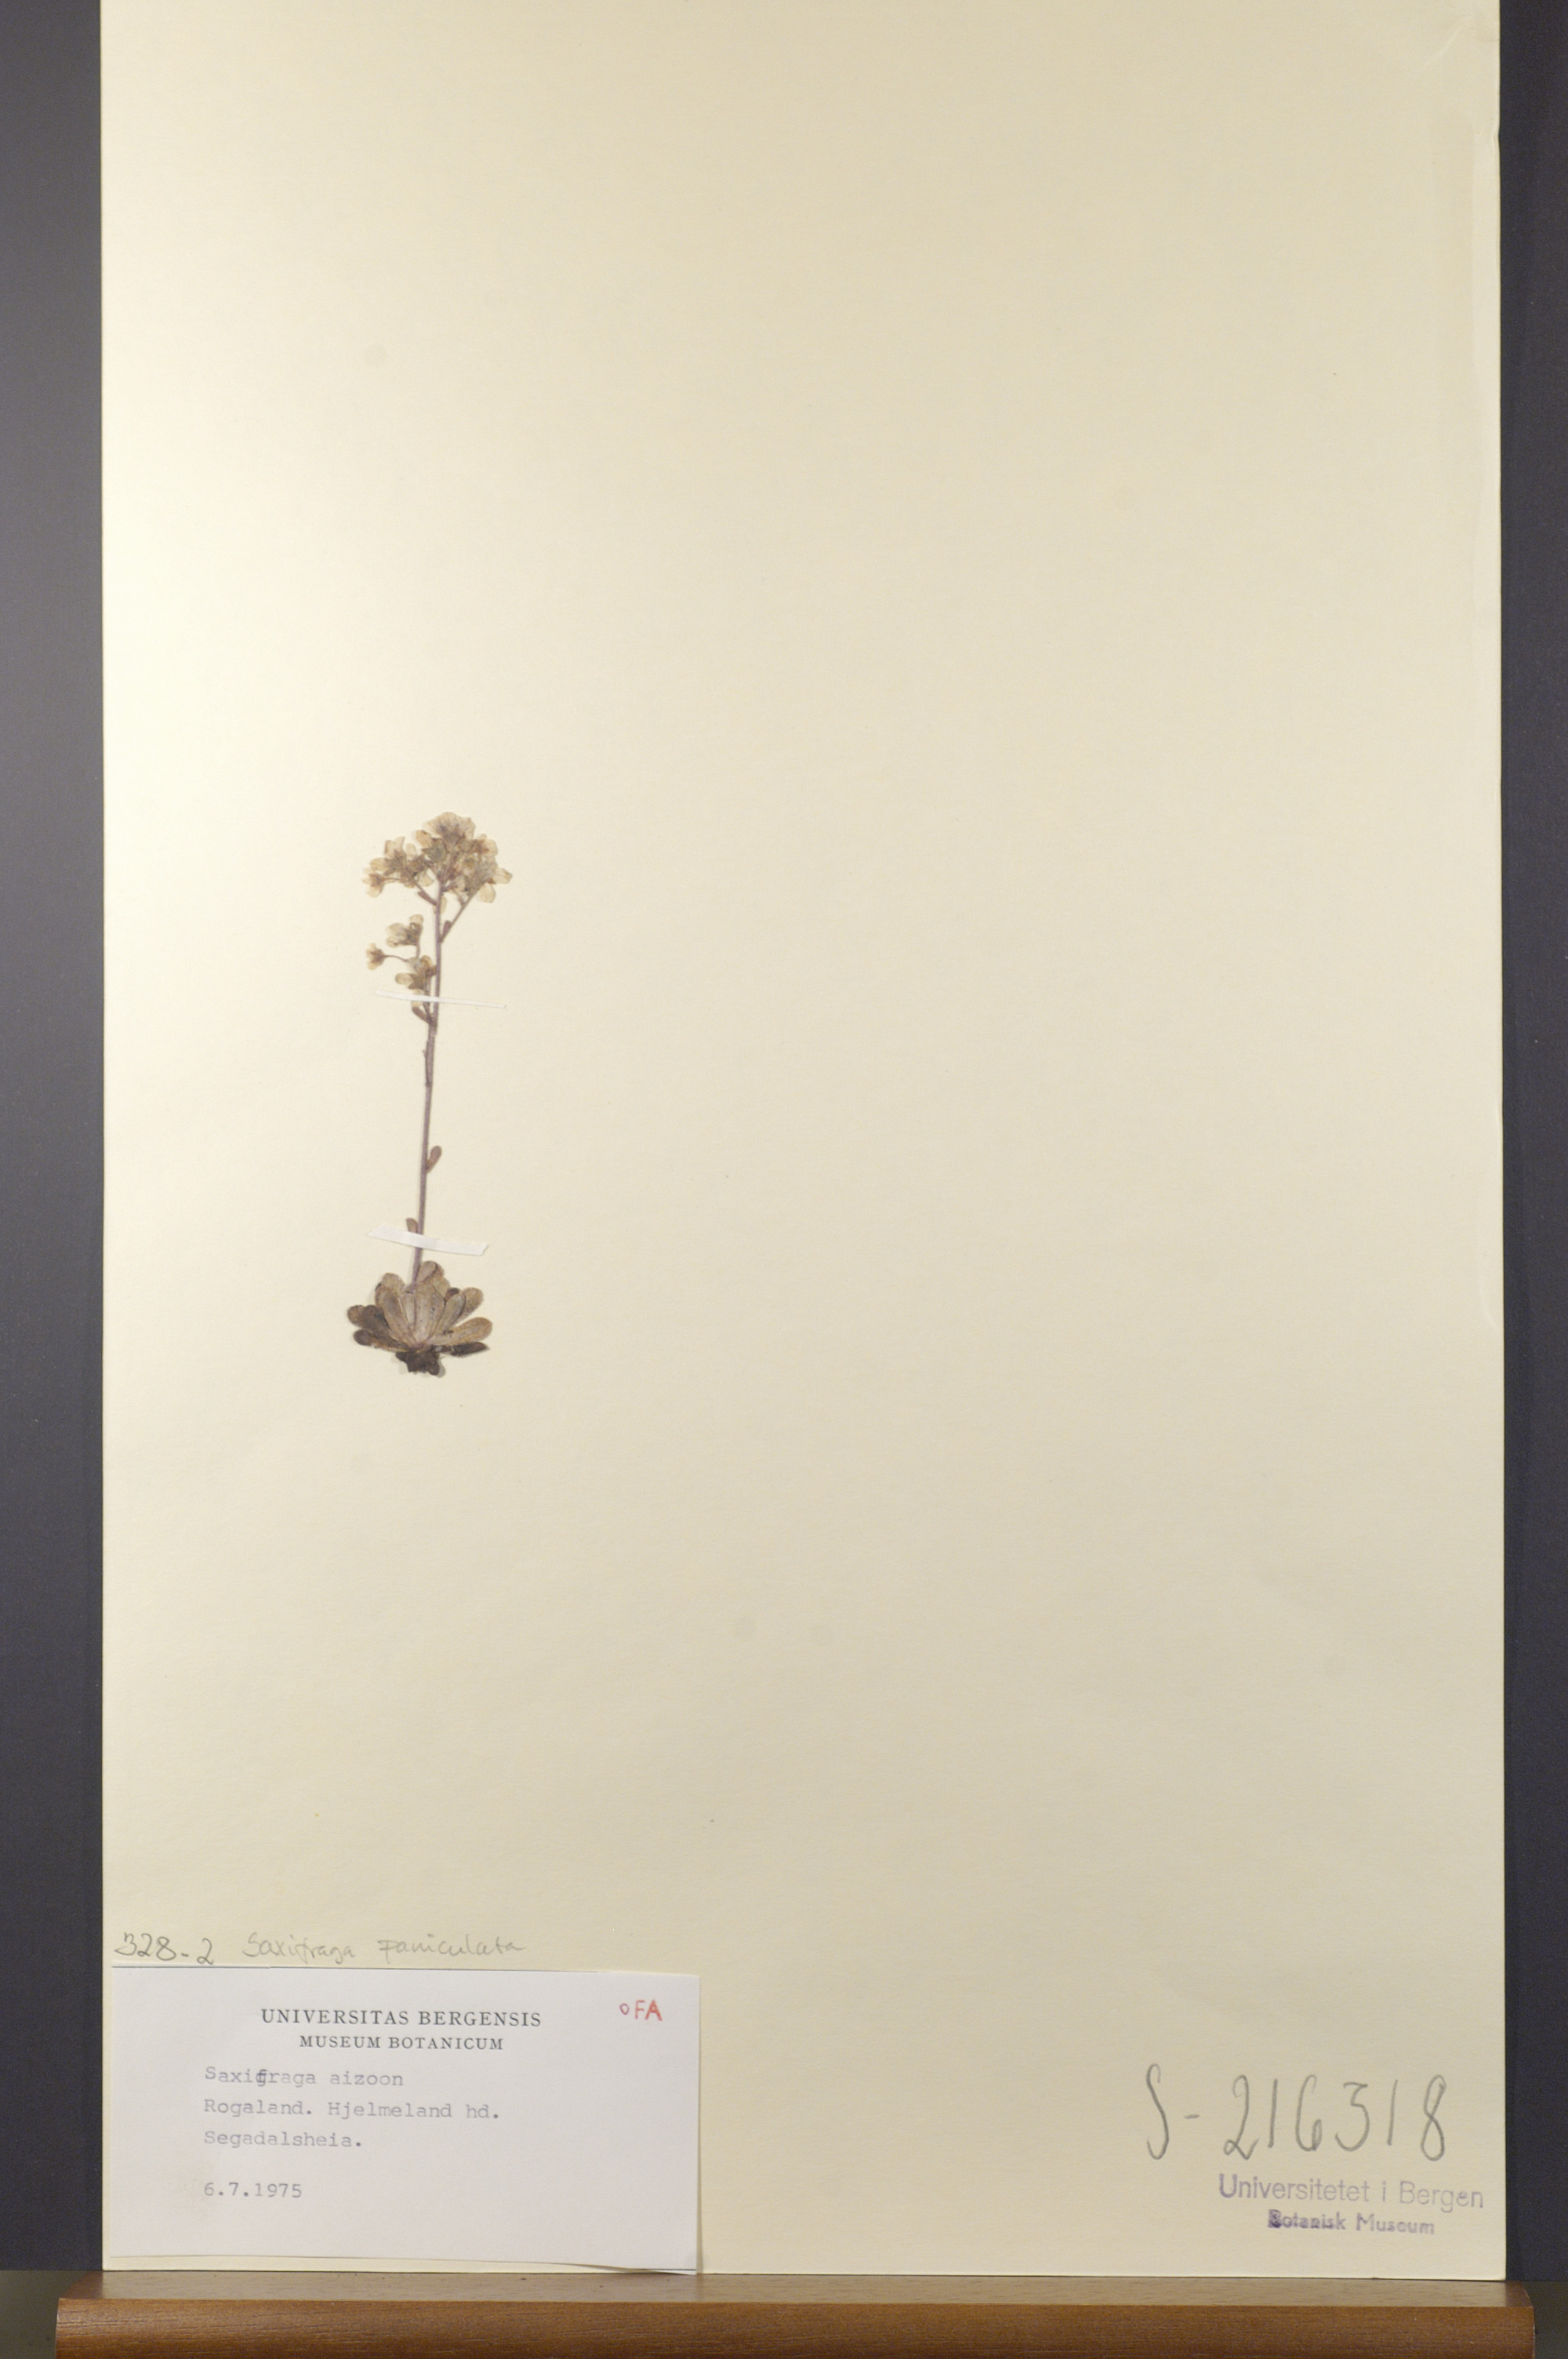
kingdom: Plantae
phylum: Tracheophyta
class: Magnoliopsida
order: Saxifragales
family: Saxifragaceae
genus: Saxifraga
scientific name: Saxifraga paniculata
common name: Livelong saxifrage
